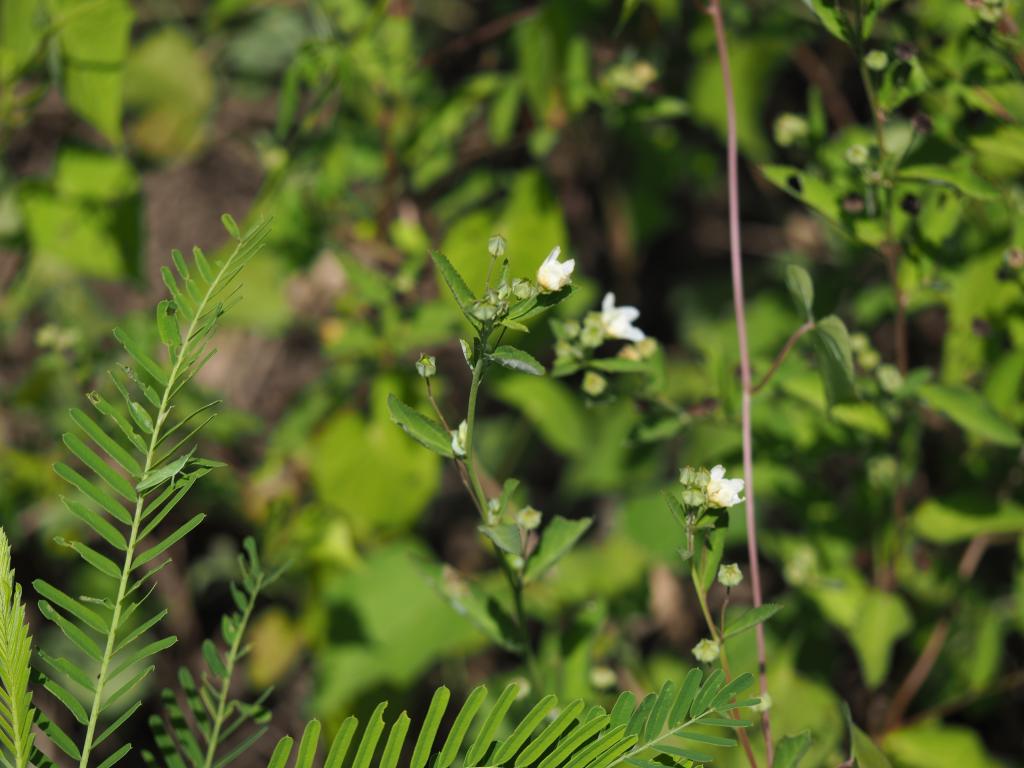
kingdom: Plantae
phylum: Tracheophyta
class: Magnoliopsida
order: Malvales
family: Malvaceae
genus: Sida
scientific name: Sida rhombifolia
